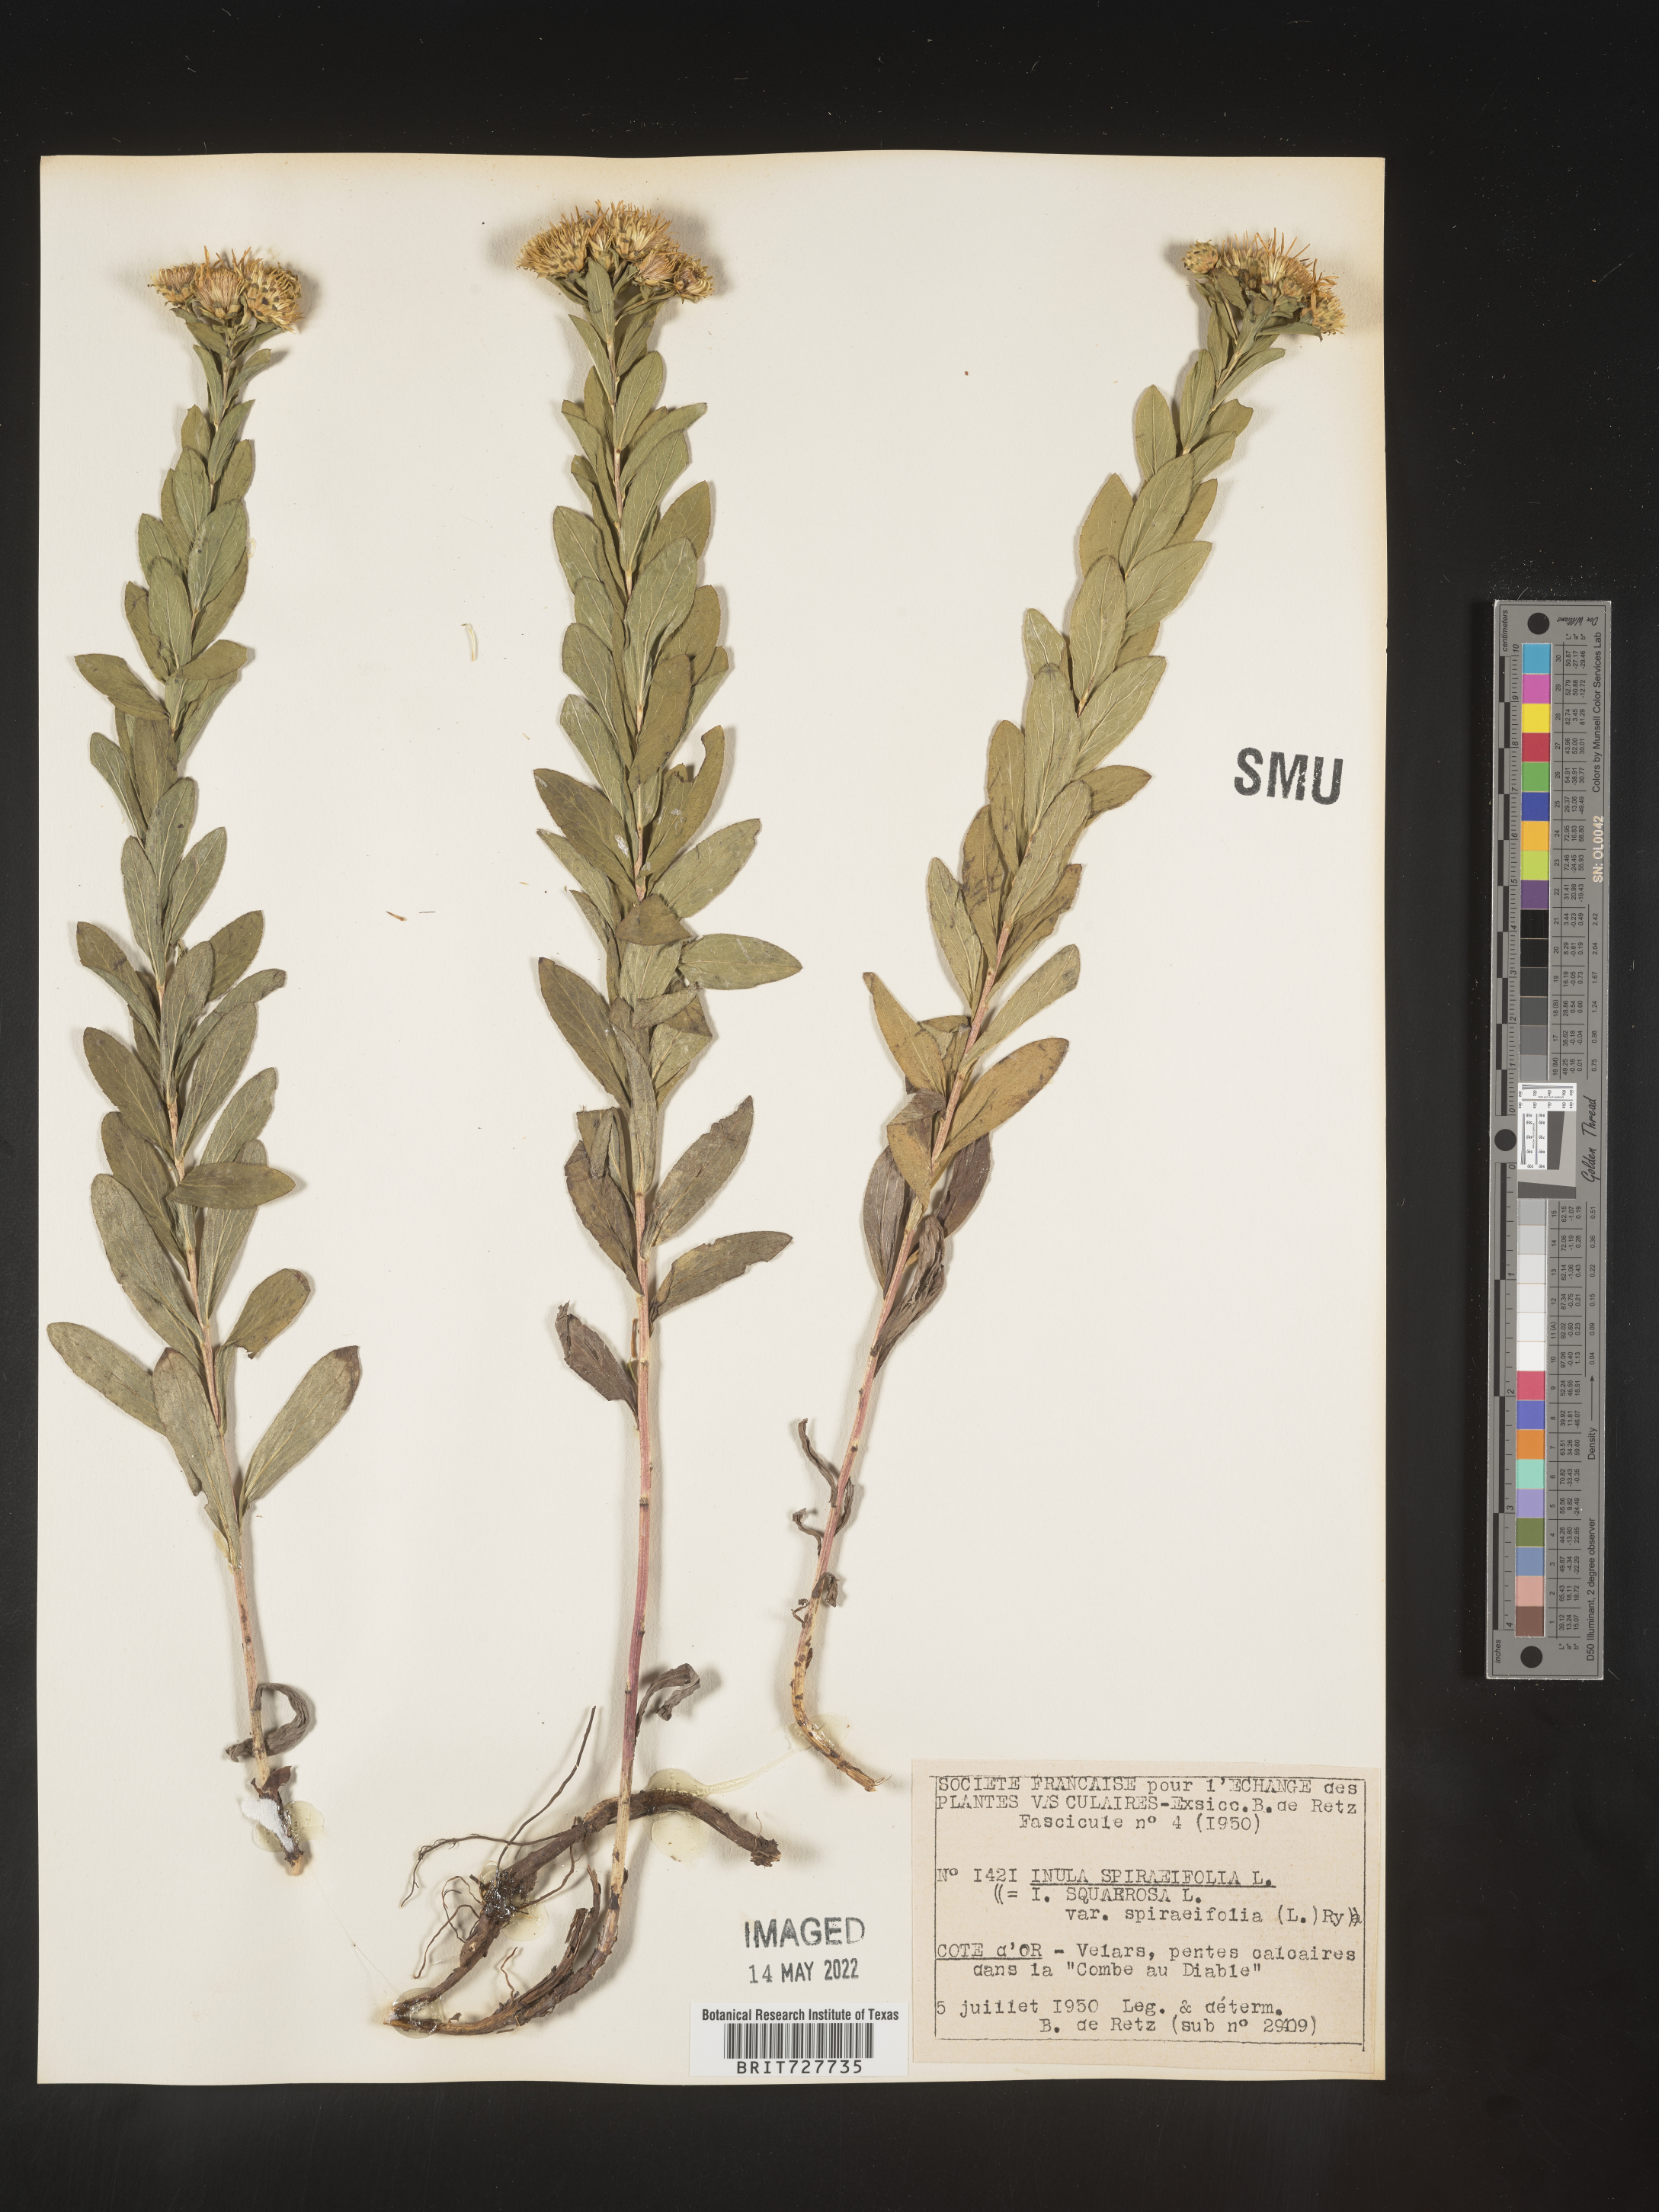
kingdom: Plantae
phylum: Tracheophyta
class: Magnoliopsida
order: Asterales
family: Asteraceae
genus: Inula
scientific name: Inula
